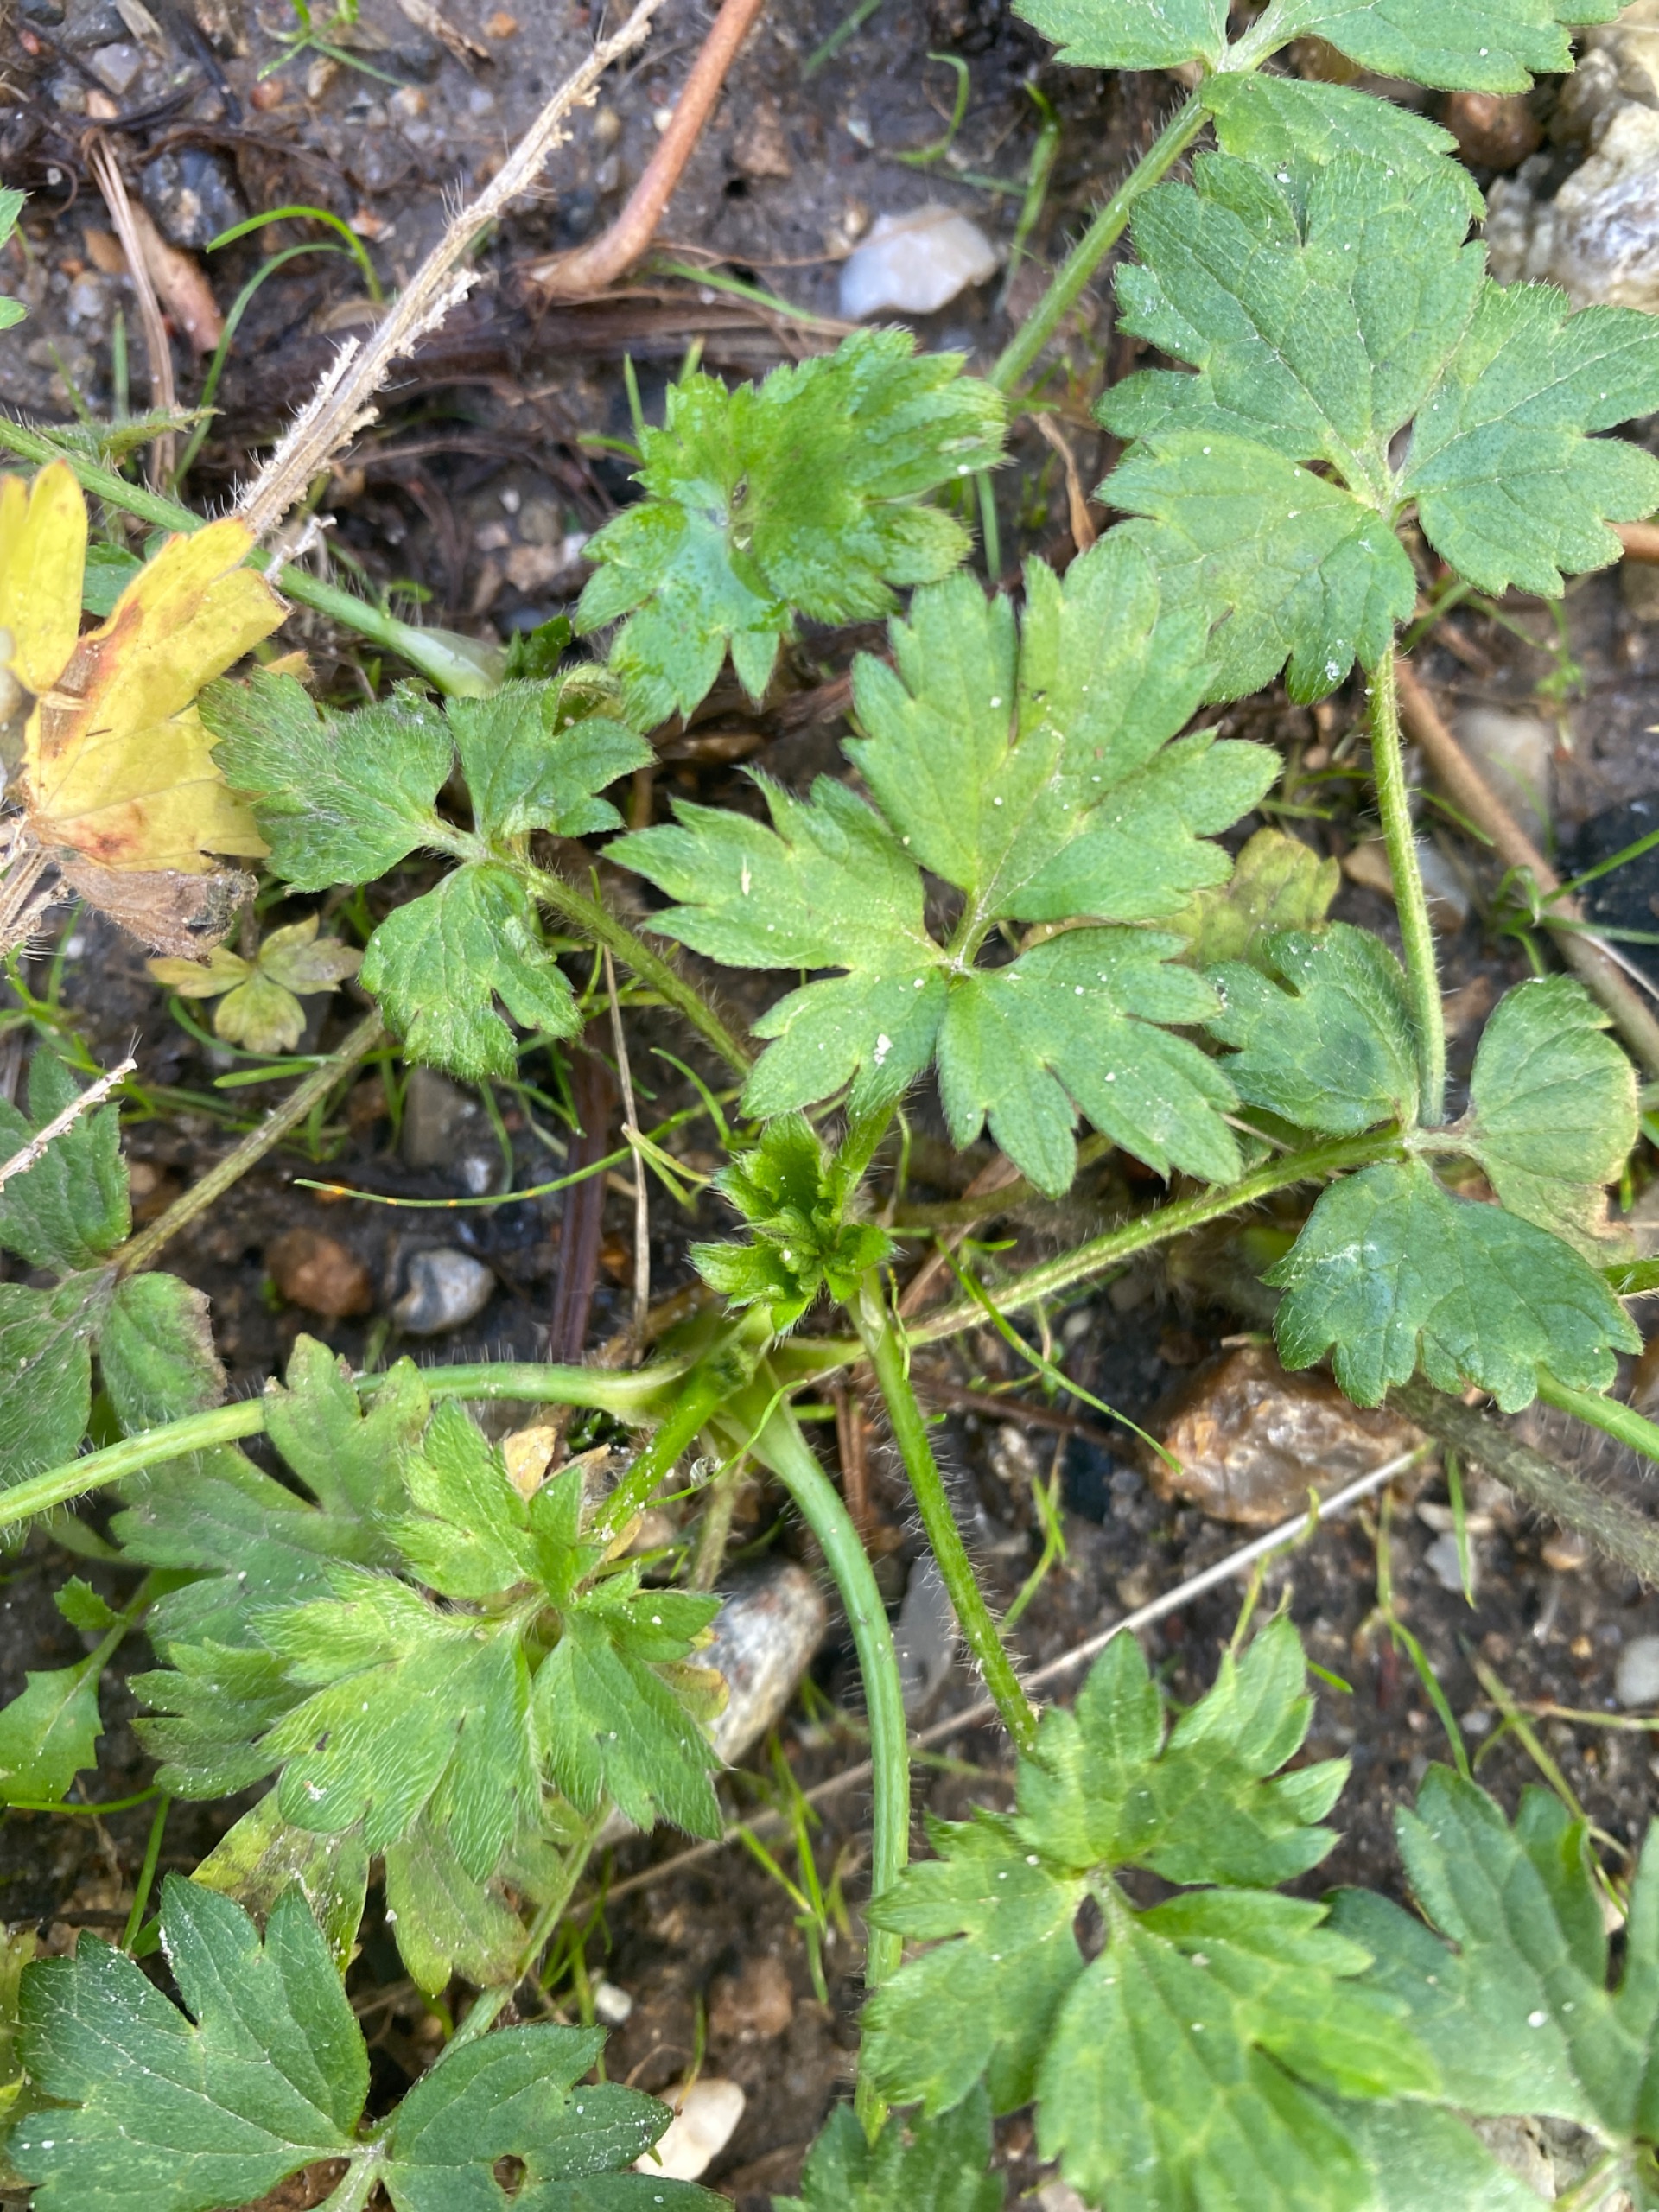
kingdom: Plantae
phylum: Tracheophyta
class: Magnoliopsida
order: Ranunculales
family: Ranunculaceae
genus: Ranunculus
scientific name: Ranunculus repens
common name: Lav ranunkel
